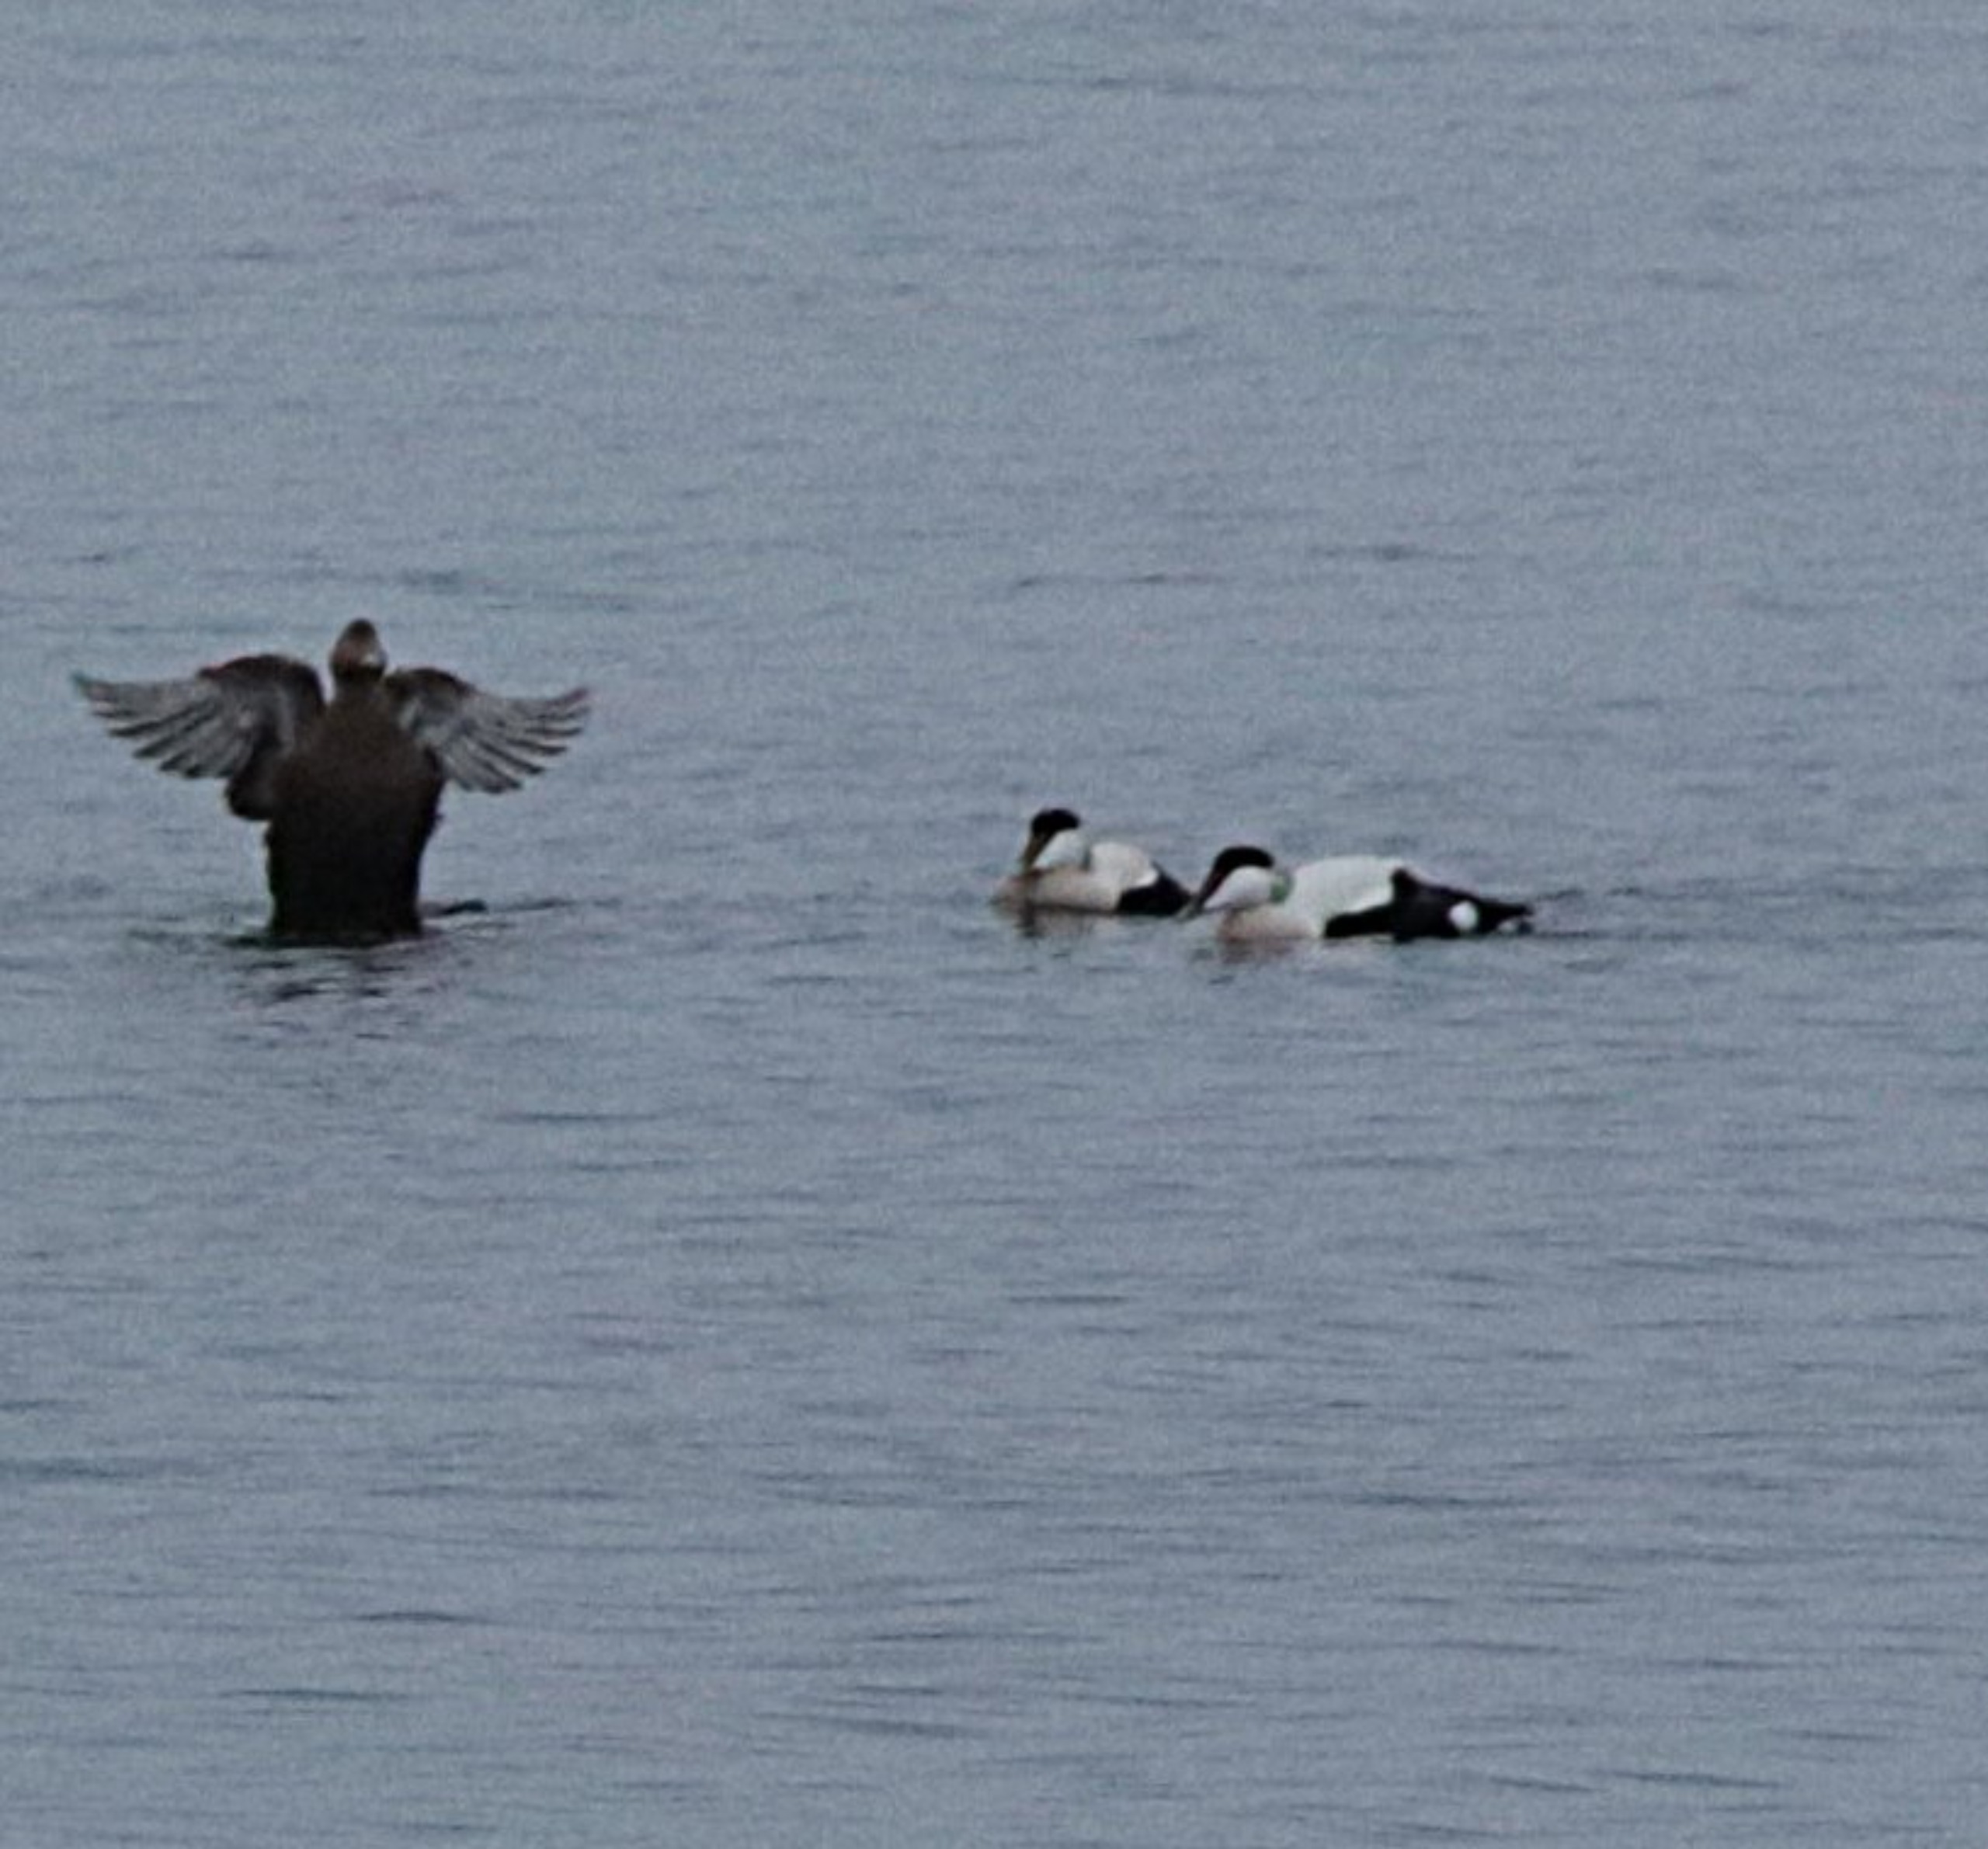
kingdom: Animalia
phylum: Chordata
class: Aves
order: Anseriformes
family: Anatidae
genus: Somateria
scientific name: Somateria mollissima
